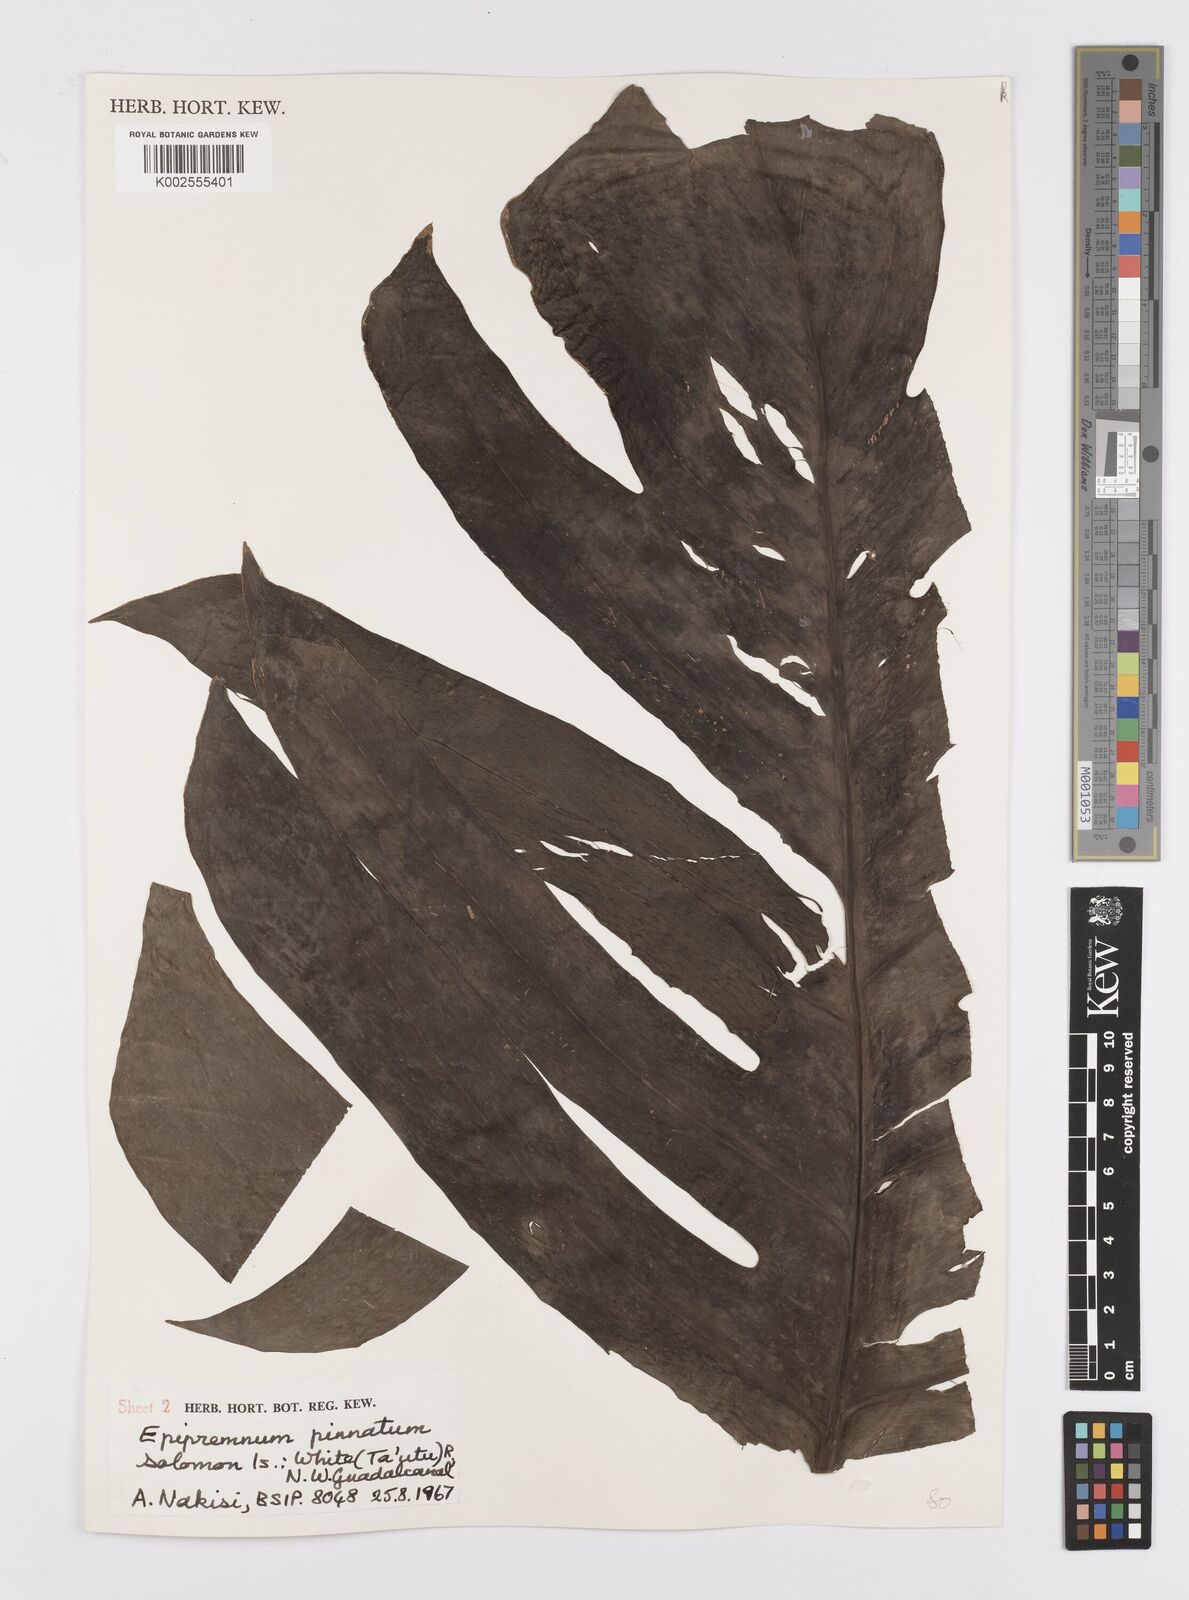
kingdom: Plantae
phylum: Tracheophyta
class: Liliopsida
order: Alismatales
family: Araceae
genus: Epipremnum
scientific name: Epipremnum pinnatum
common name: Centipede tongavine
